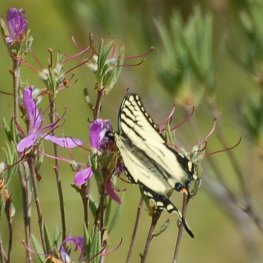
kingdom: Animalia
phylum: Arthropoda
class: Insecta
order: Lepidoptera
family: Papilionidae
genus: Pterourus
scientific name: Pterourus canadensis
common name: Canadian Tiger Swallowtail
